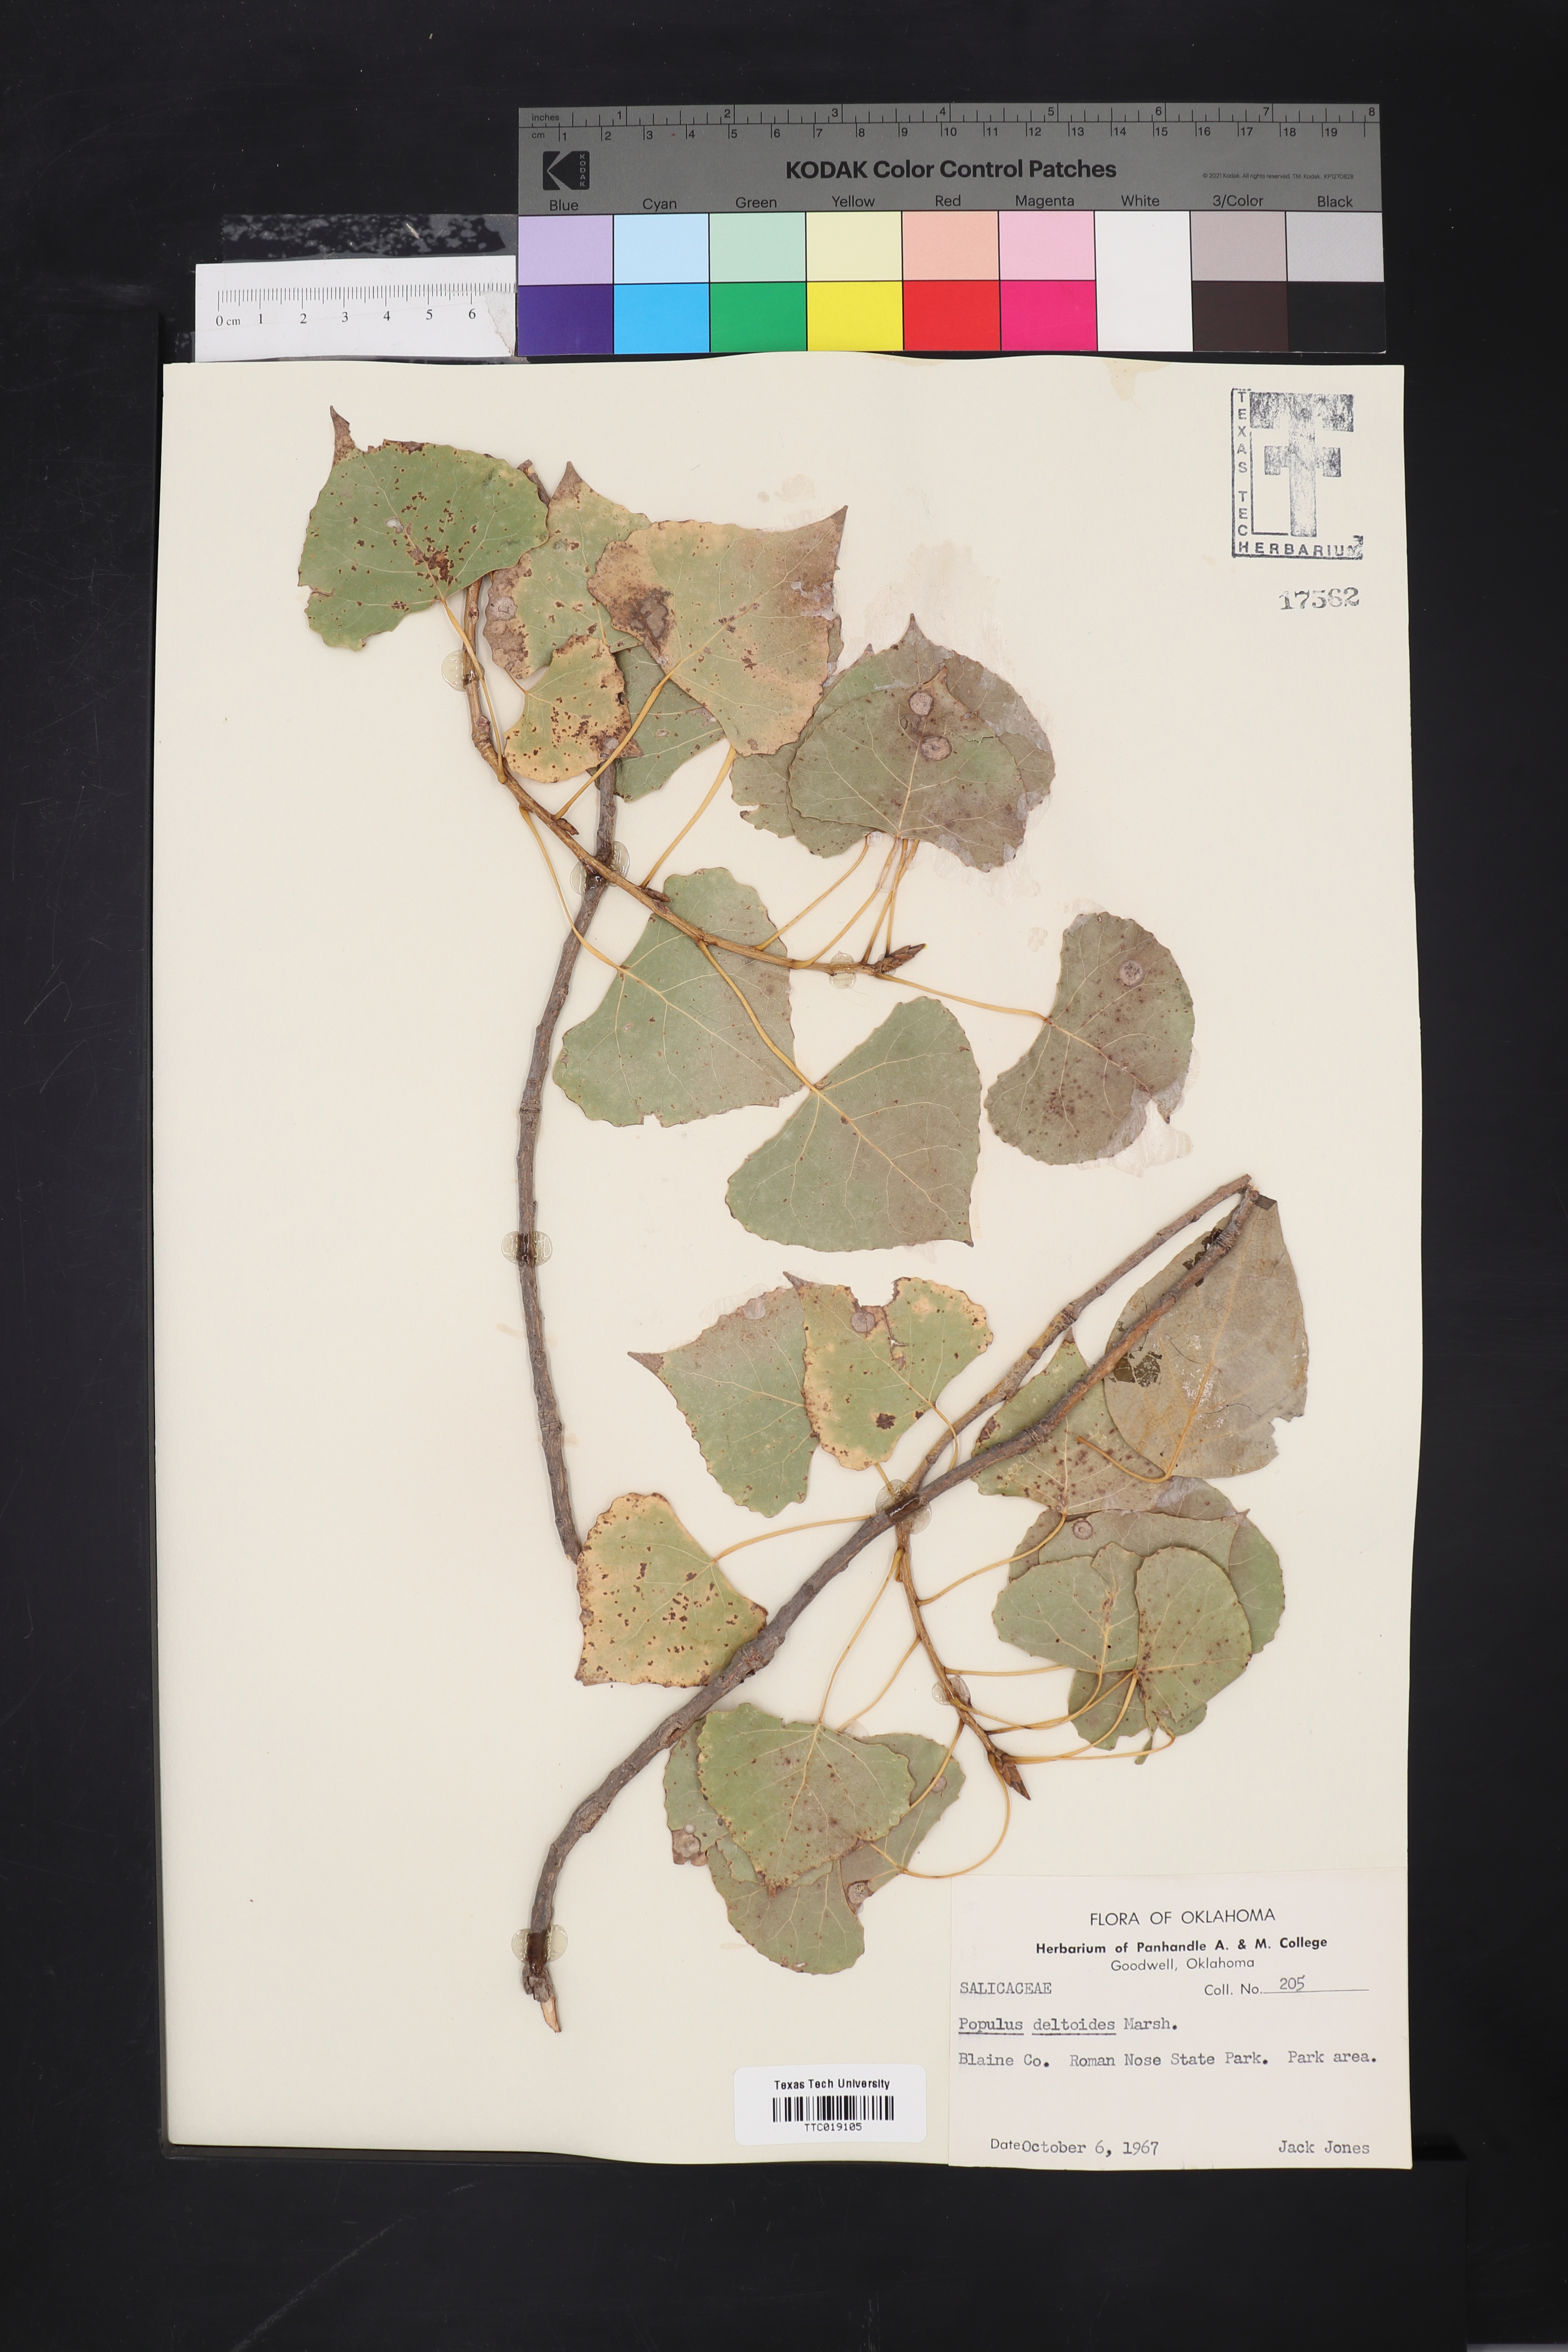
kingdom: Plantae
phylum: Tracheophyta
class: Magnoliopsida
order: Malpighiales
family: Salicaceae
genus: Populus
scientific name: Populus deltoides
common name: Eastern cottonwood
